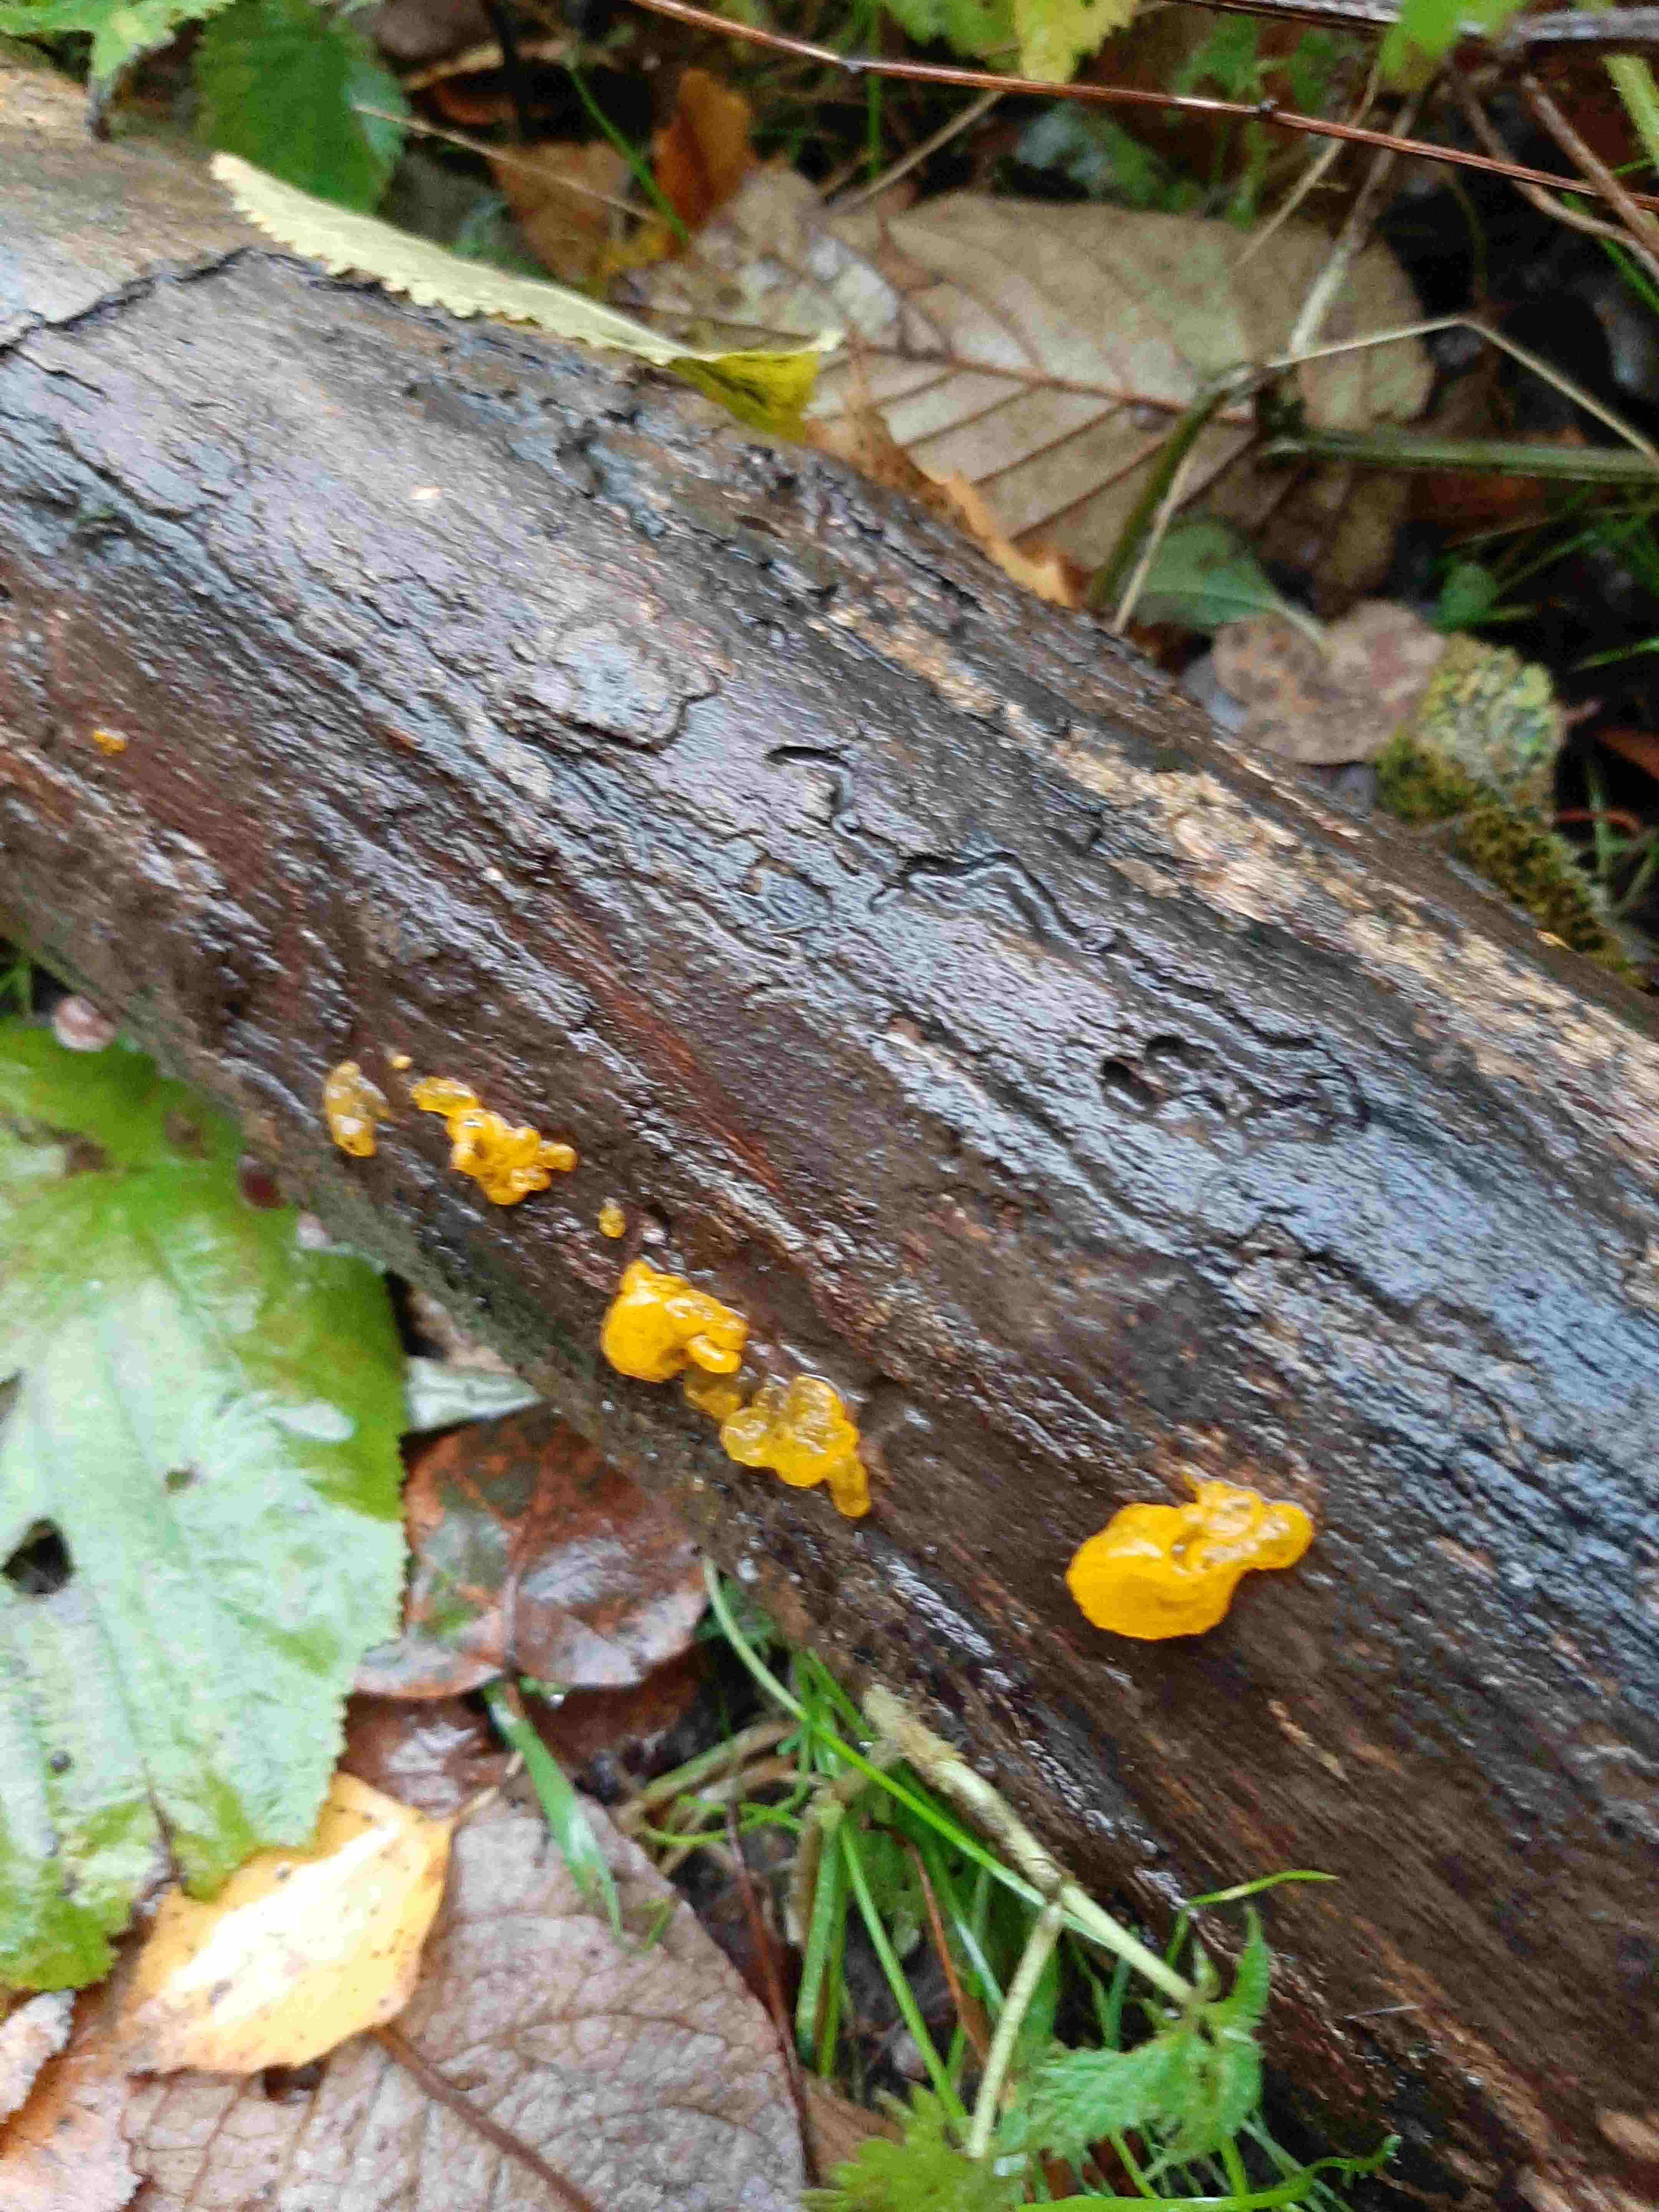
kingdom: Fungi
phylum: Basidiomycota
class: Tremellomycetes
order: Tremellales
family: Tremellaceae
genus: Tremella
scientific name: Tremella mesenterica
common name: gul bævresvamp
